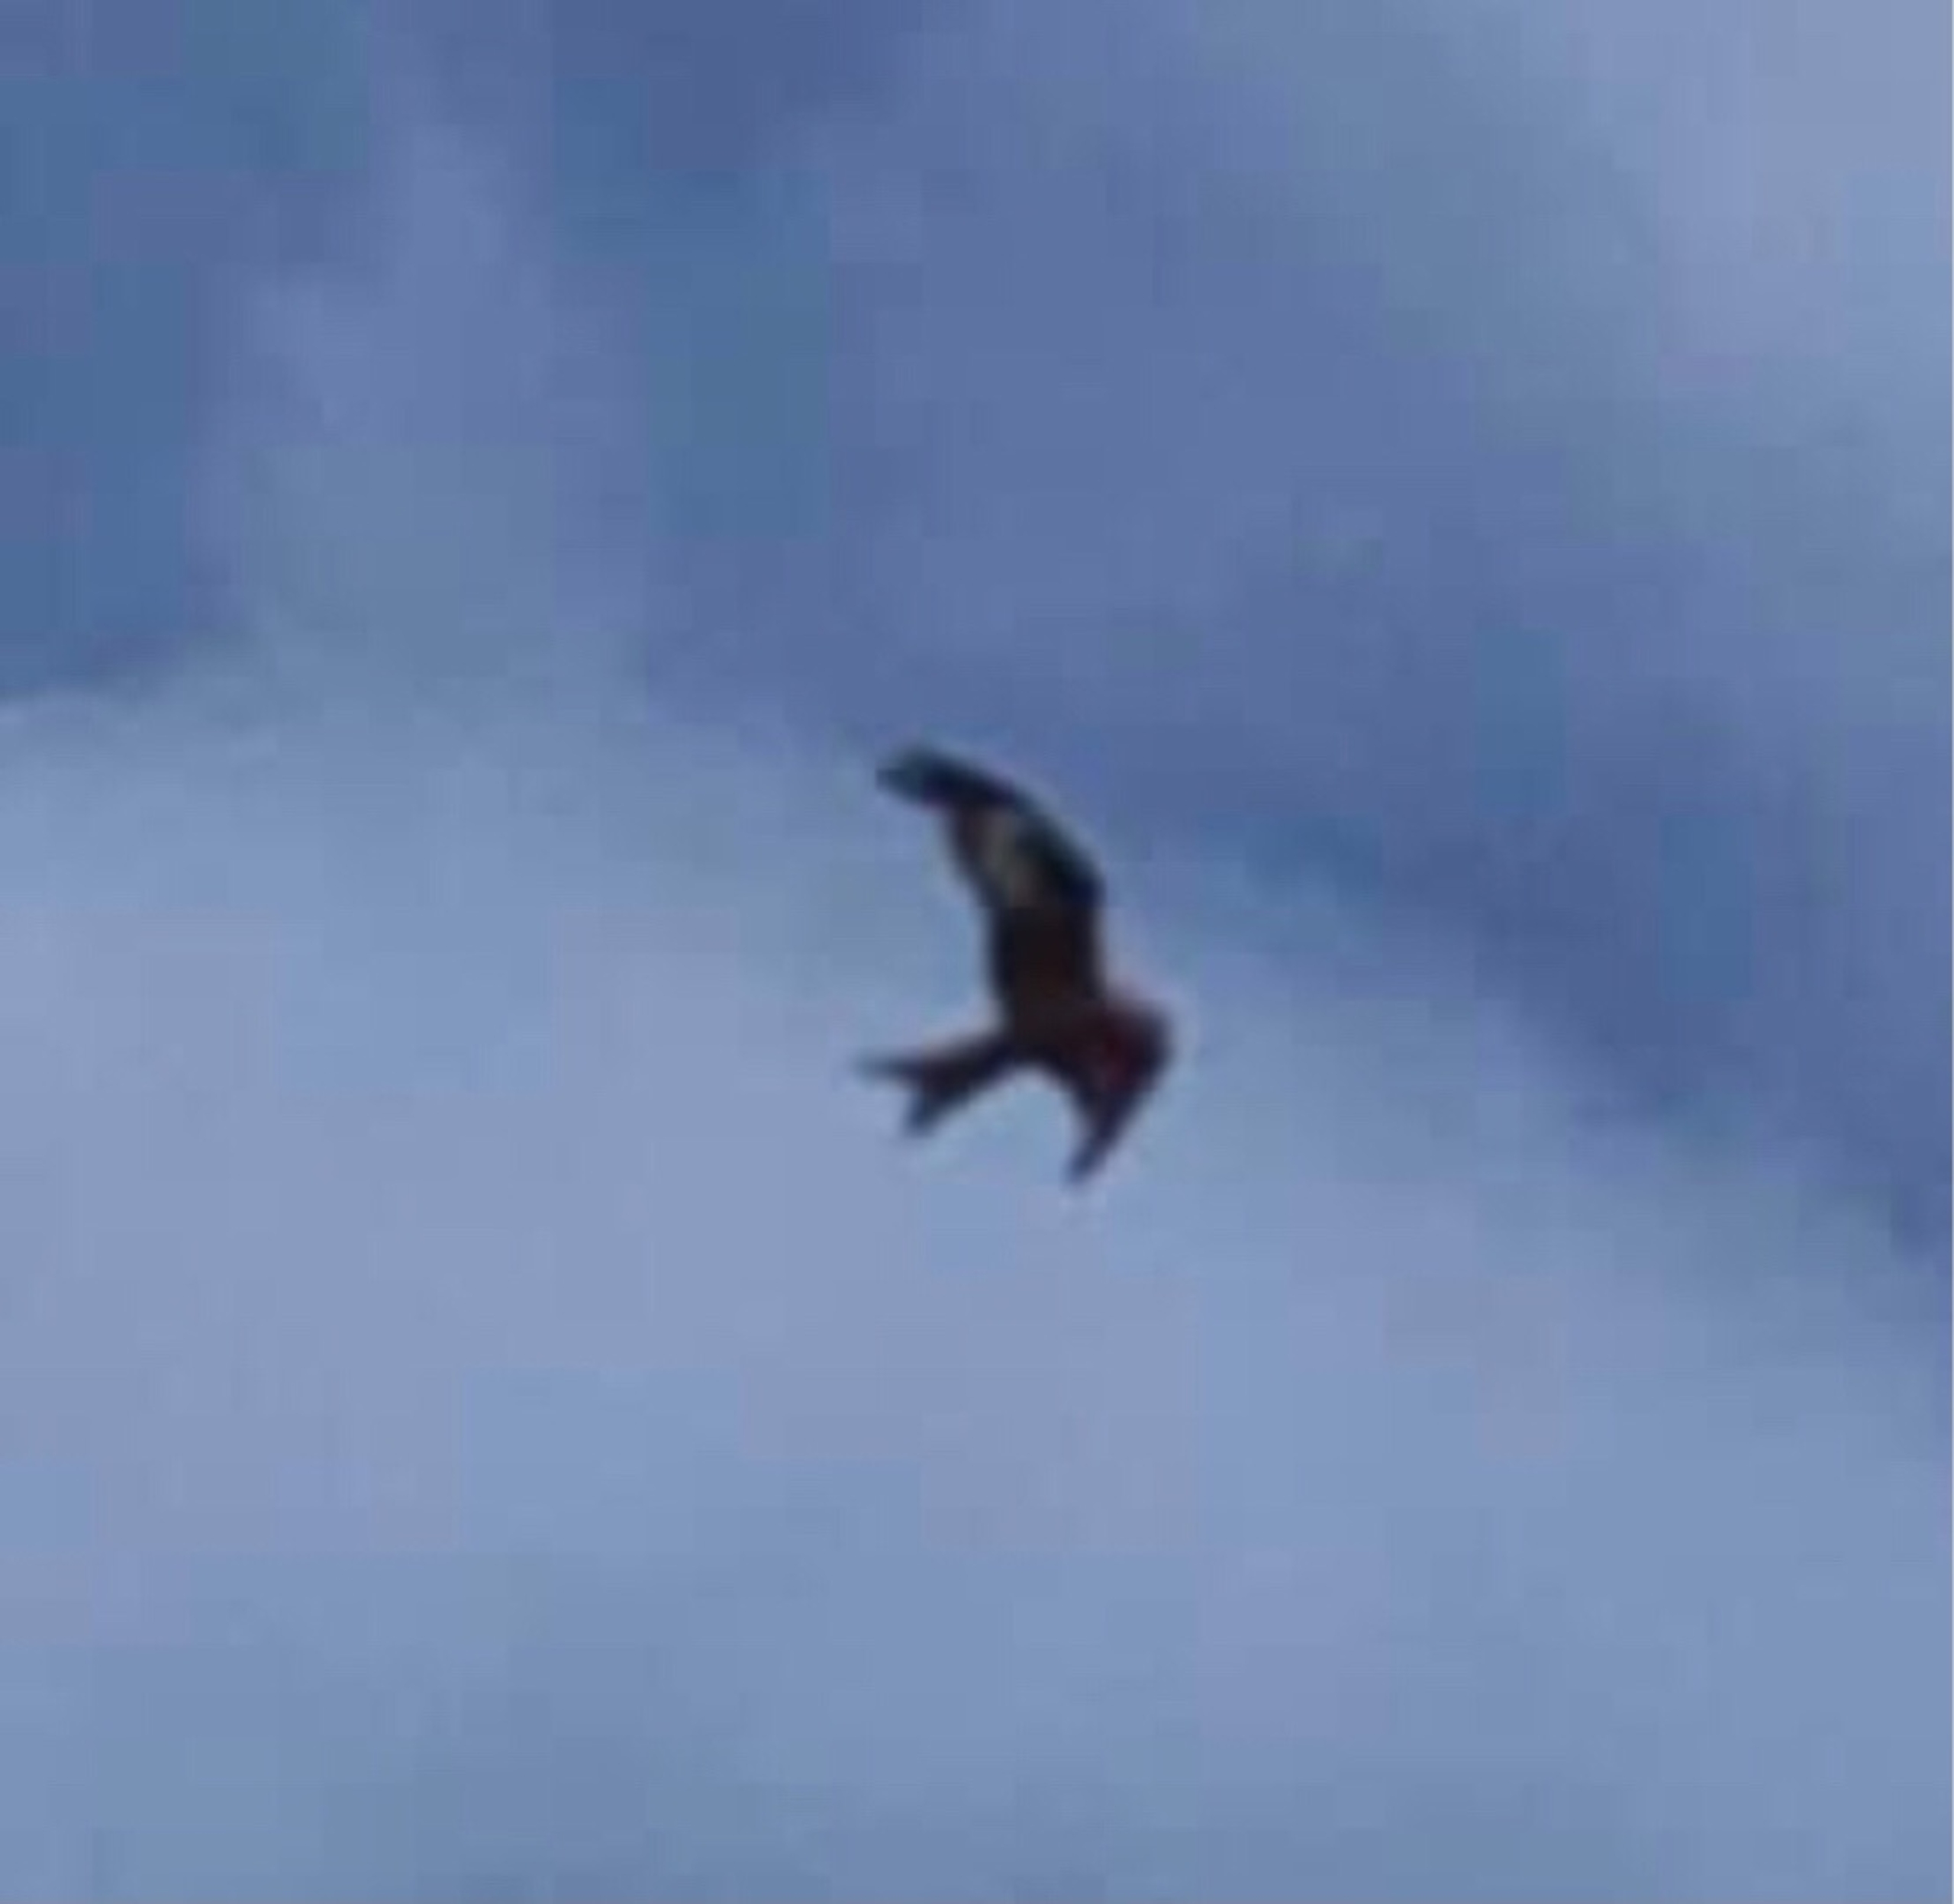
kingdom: Animalia
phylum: Chordata
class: Aves
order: Accipitriformes
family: Accipitridae
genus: Milvus
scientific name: Milvus milvus
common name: Rød glente
